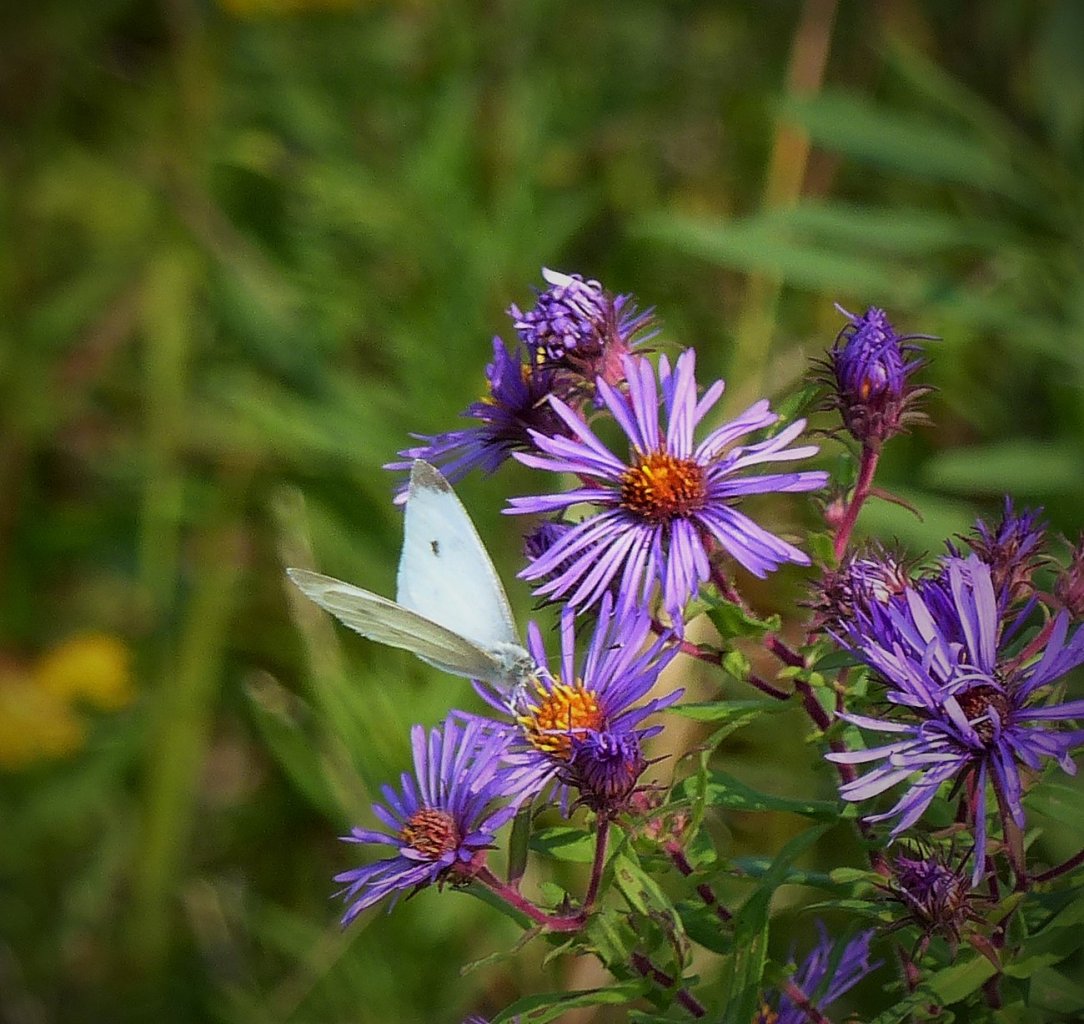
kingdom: Animalia
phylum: Arthropoda
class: Insecta
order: Lepidoptera
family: Pieridae
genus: Pieris
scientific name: Pieris rapae
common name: Cabbage White
